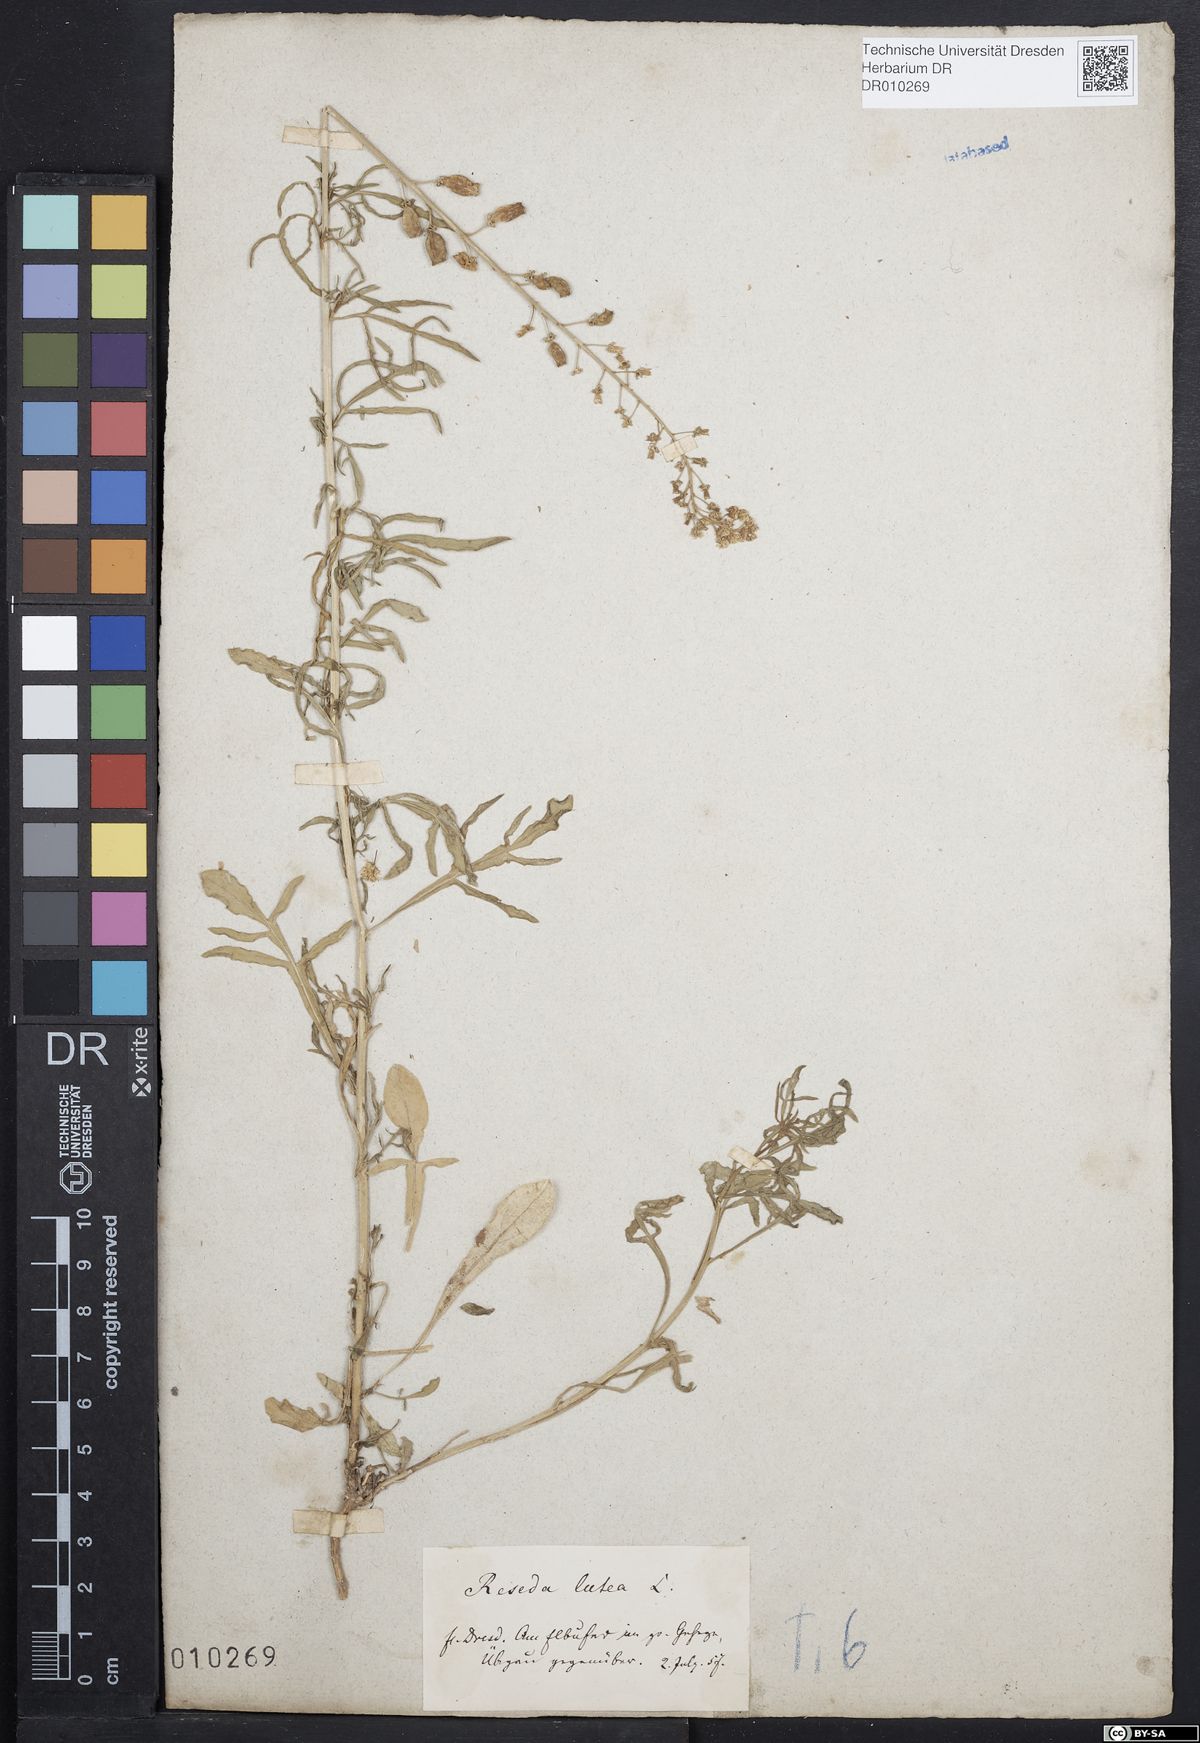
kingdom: Plantae
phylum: Tracheophyta
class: Magnoliopsida
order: Brassicales
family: Resedaceae
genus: Reseda
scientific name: Reseda lutea
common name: Wild mignonette
